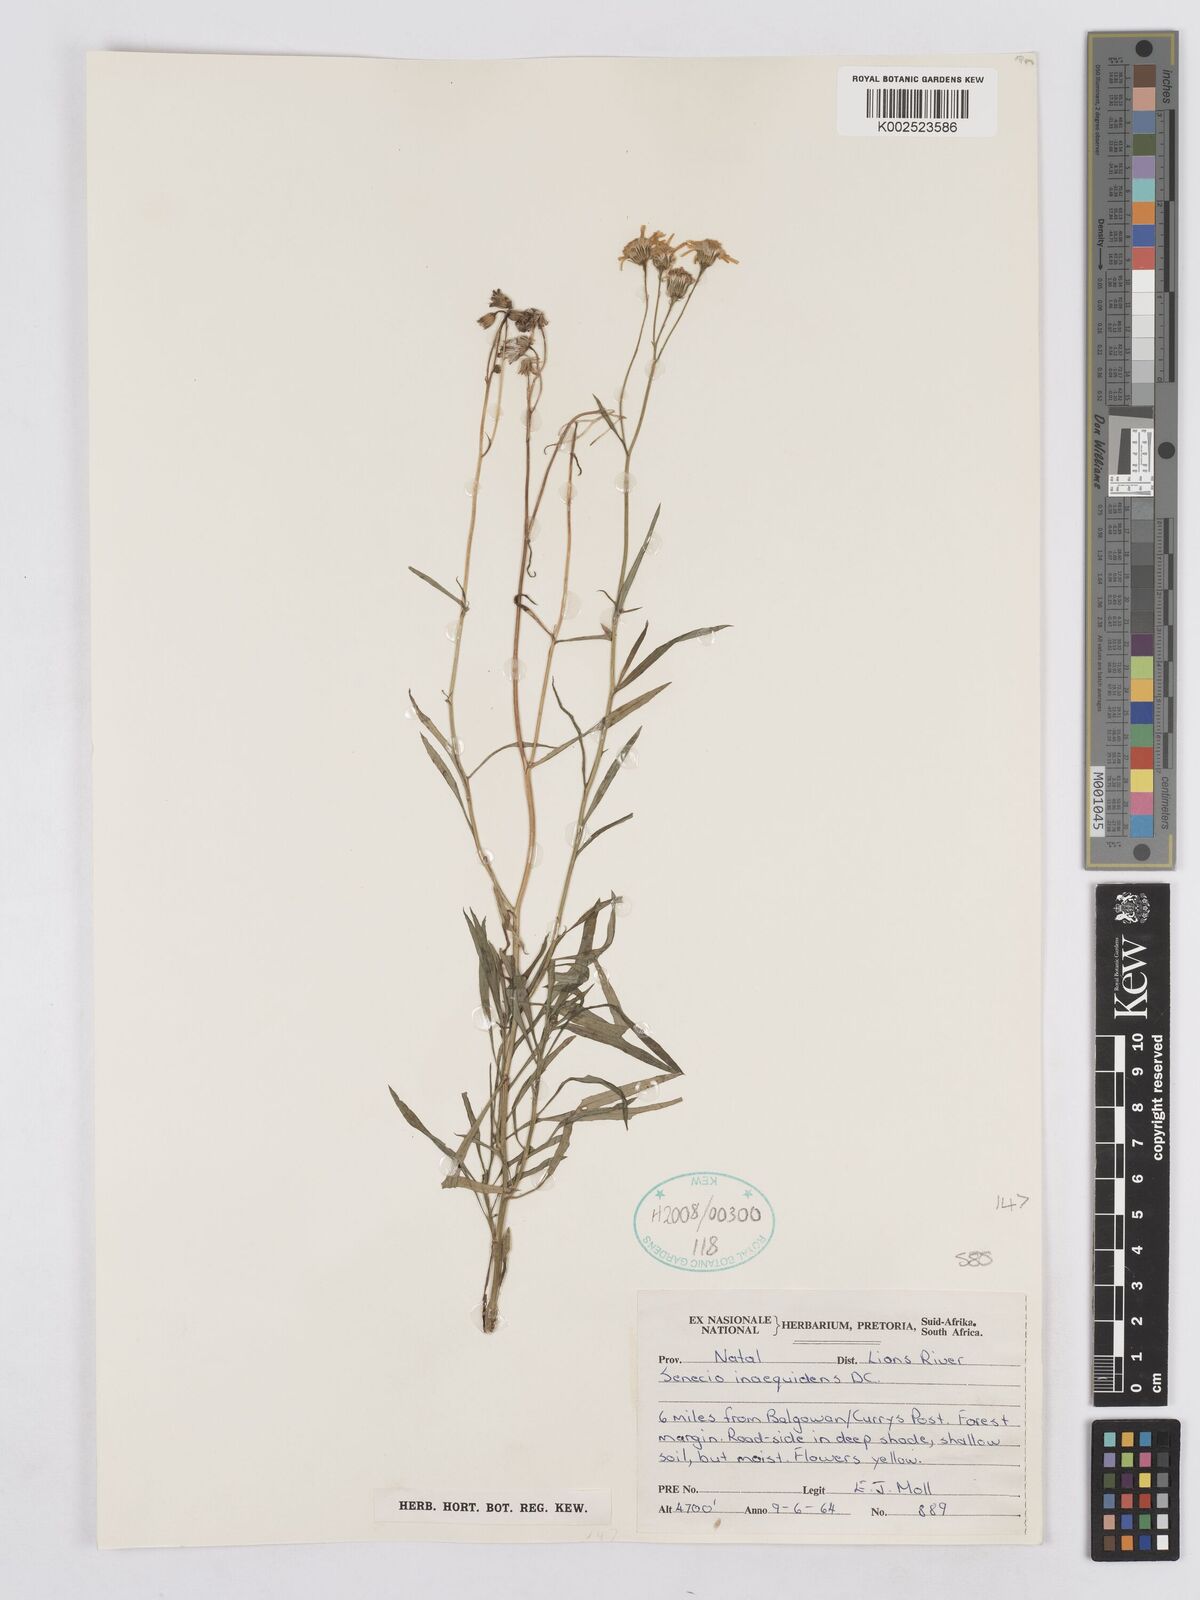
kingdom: Plantae
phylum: Tracheophyta
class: Magnoliopsida
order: Asterales
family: Asteraceae
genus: Senecio
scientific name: Senecio inaequidens
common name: Narrow-leaved ragwort
